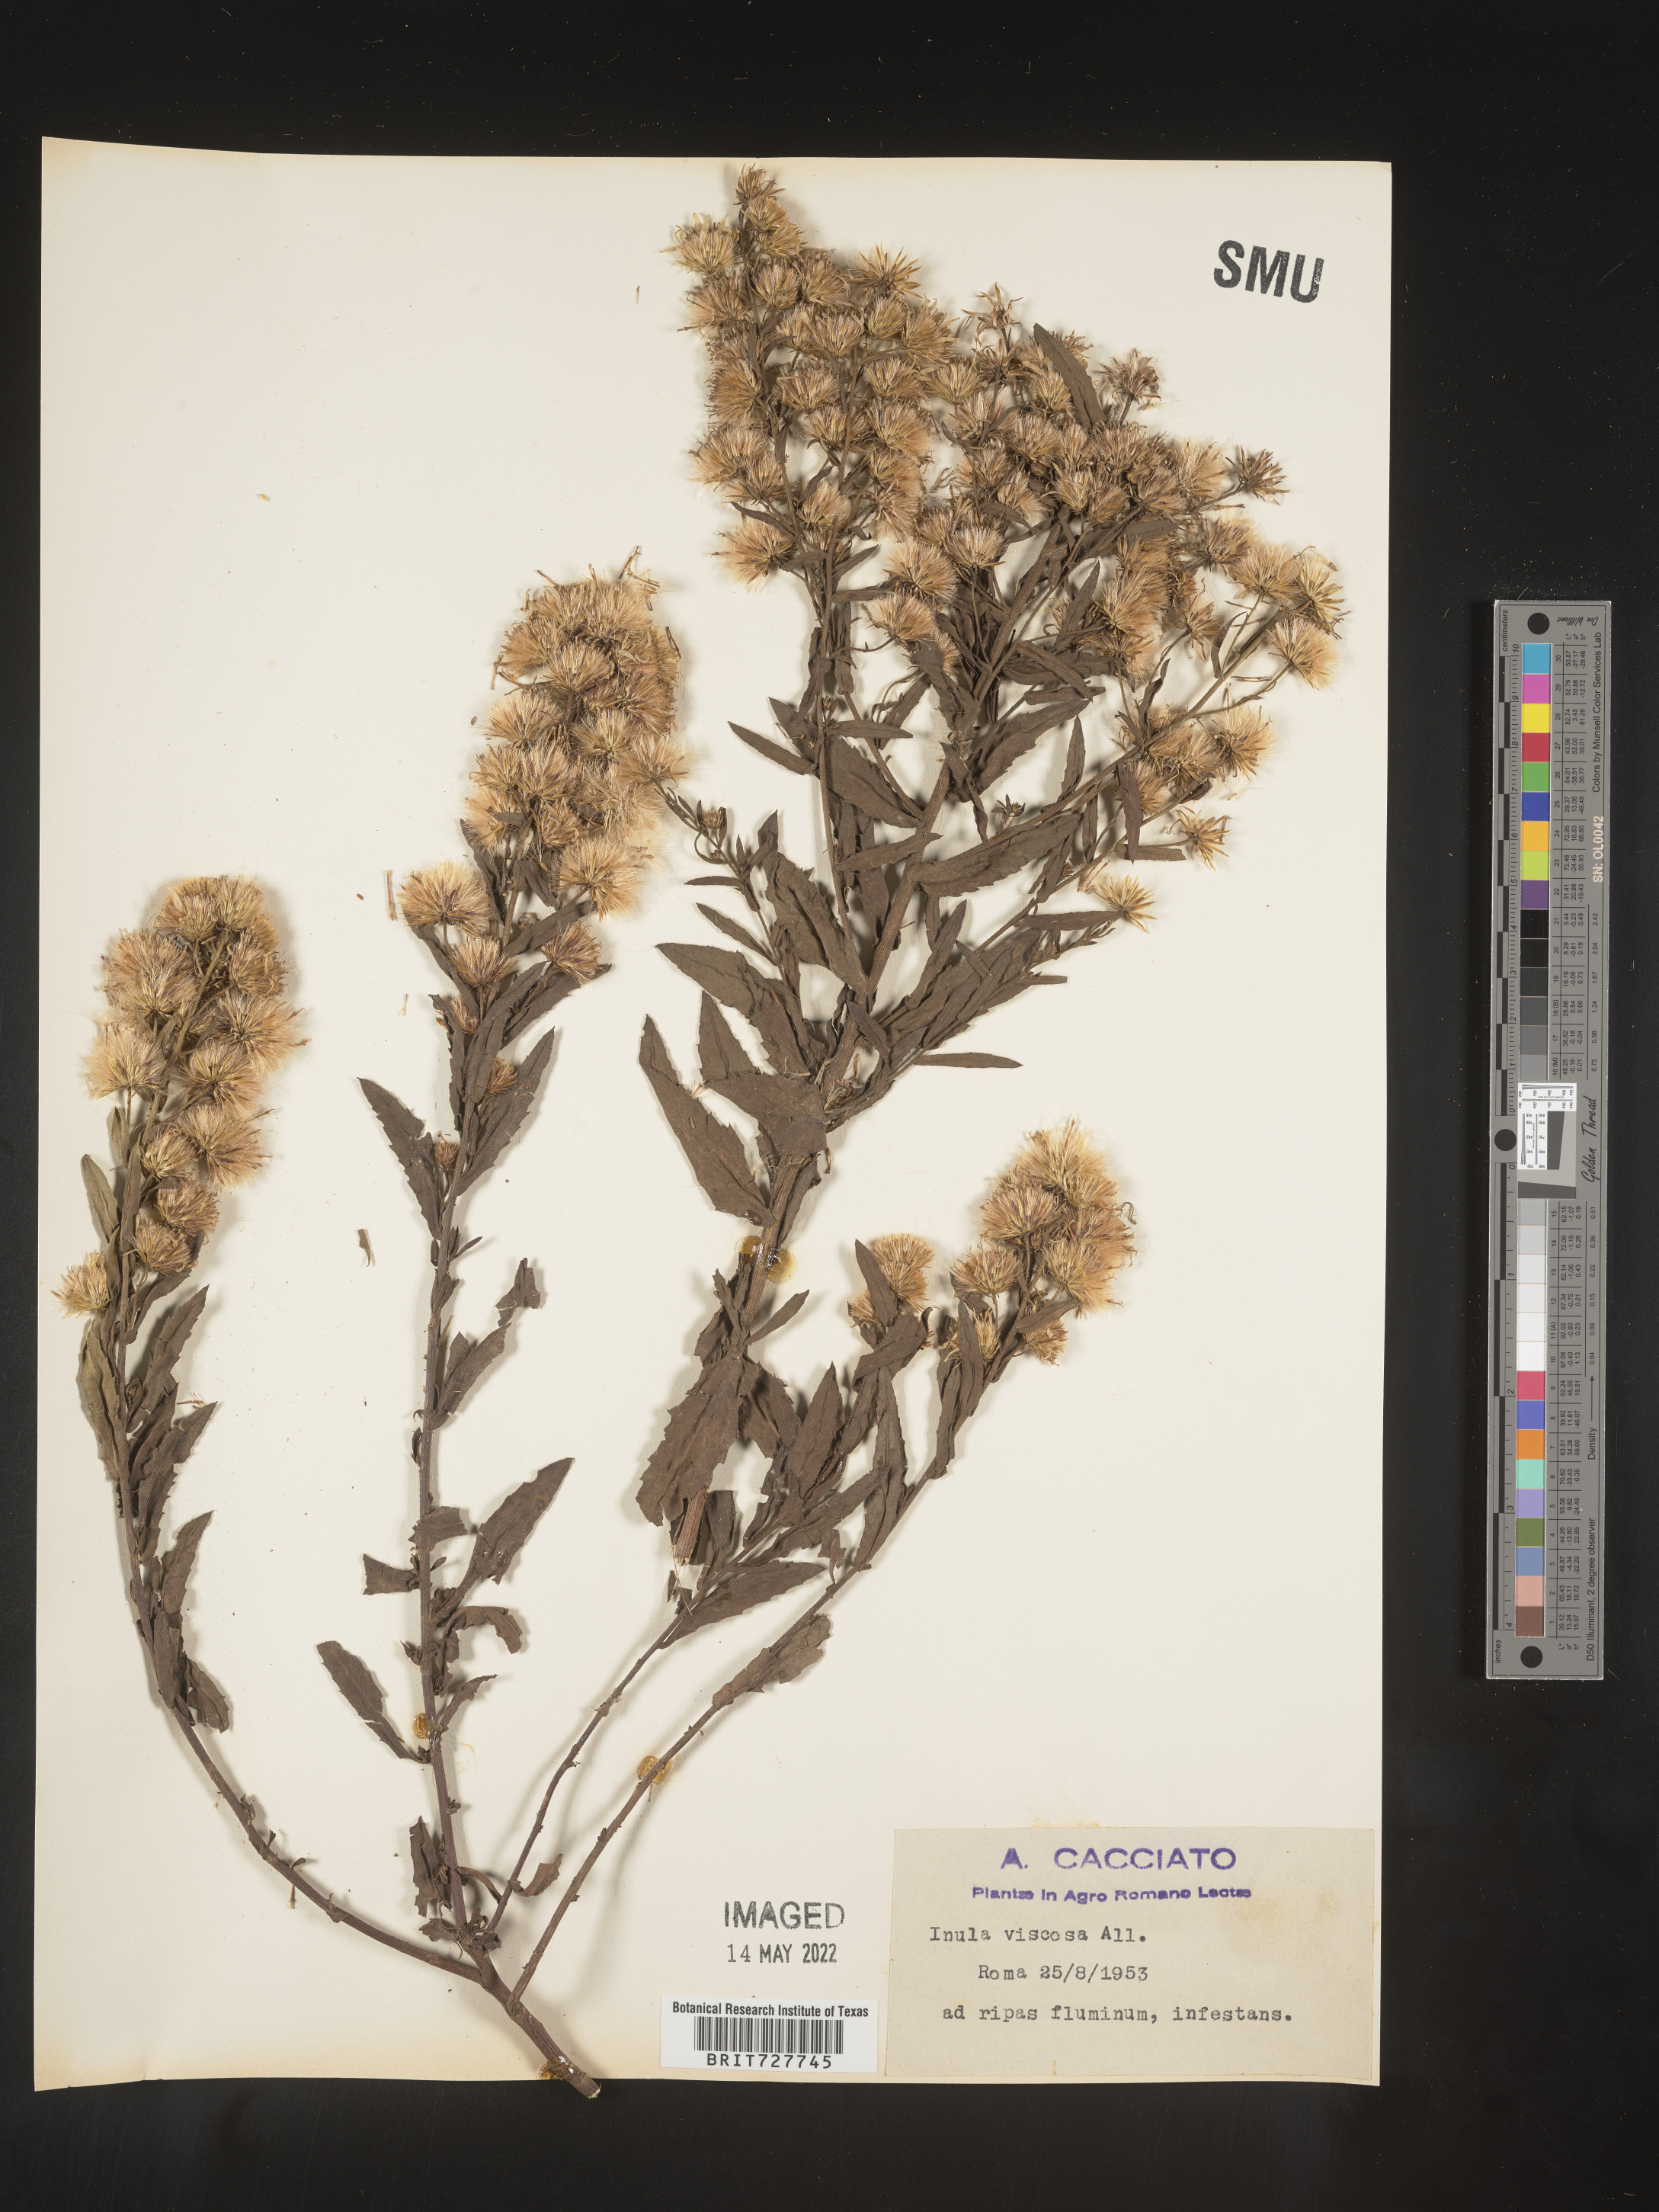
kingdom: Plantae
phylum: Tracheophyta
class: Magnoliopsida
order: Asterales
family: Asteraceae
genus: Inula
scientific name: Inula
